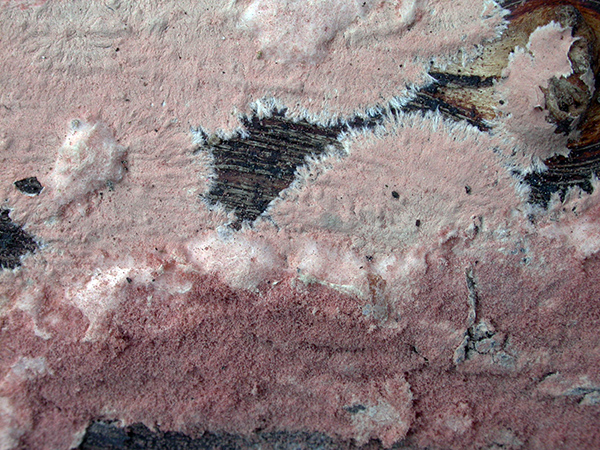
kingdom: Fungi
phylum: Basidiomycota
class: Agaricomycetes
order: Corticiales
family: Corticiaceae
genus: Corticium
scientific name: Corticium roseum
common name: rosa barkskind
